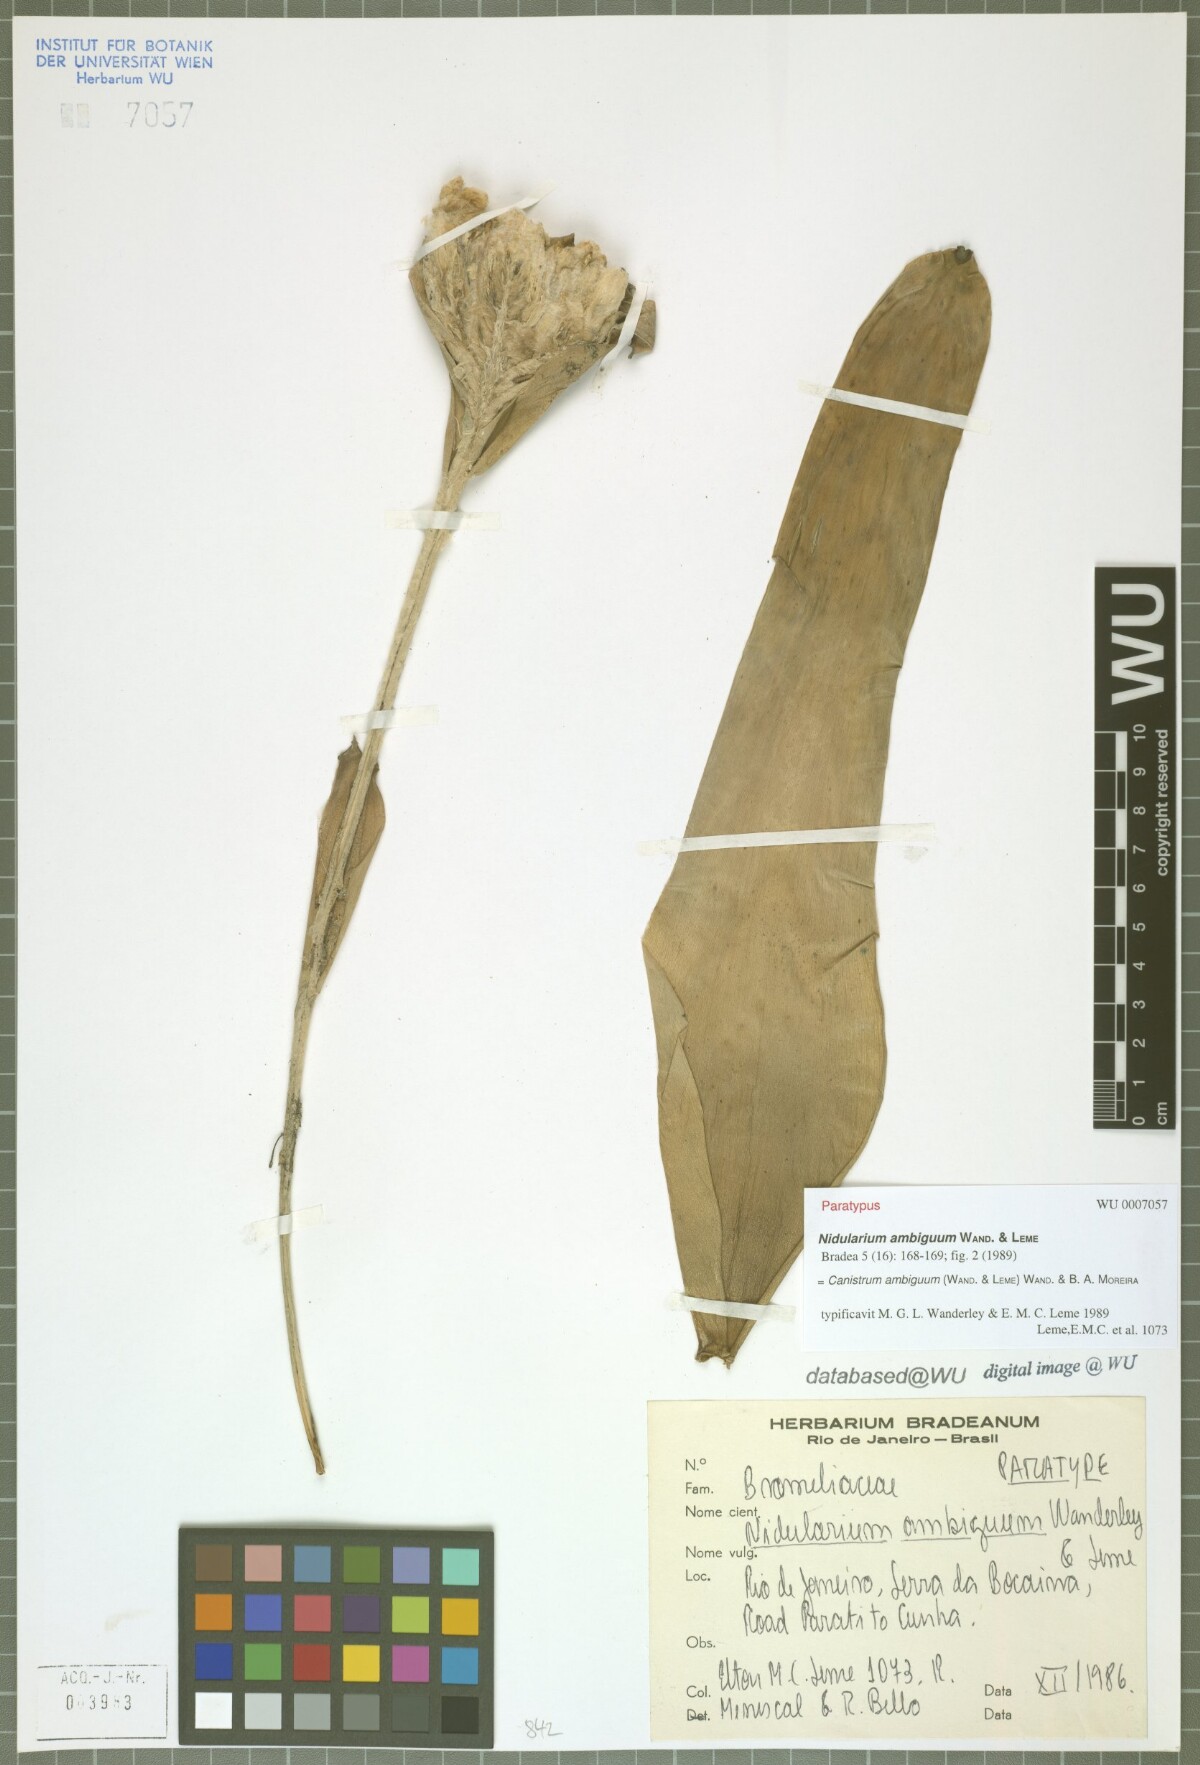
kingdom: Plantae
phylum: Tracheophyta
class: Liliopsida
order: Poales
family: Bromeliaceae
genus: Edmundoa
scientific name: Edmundoa ambigua
